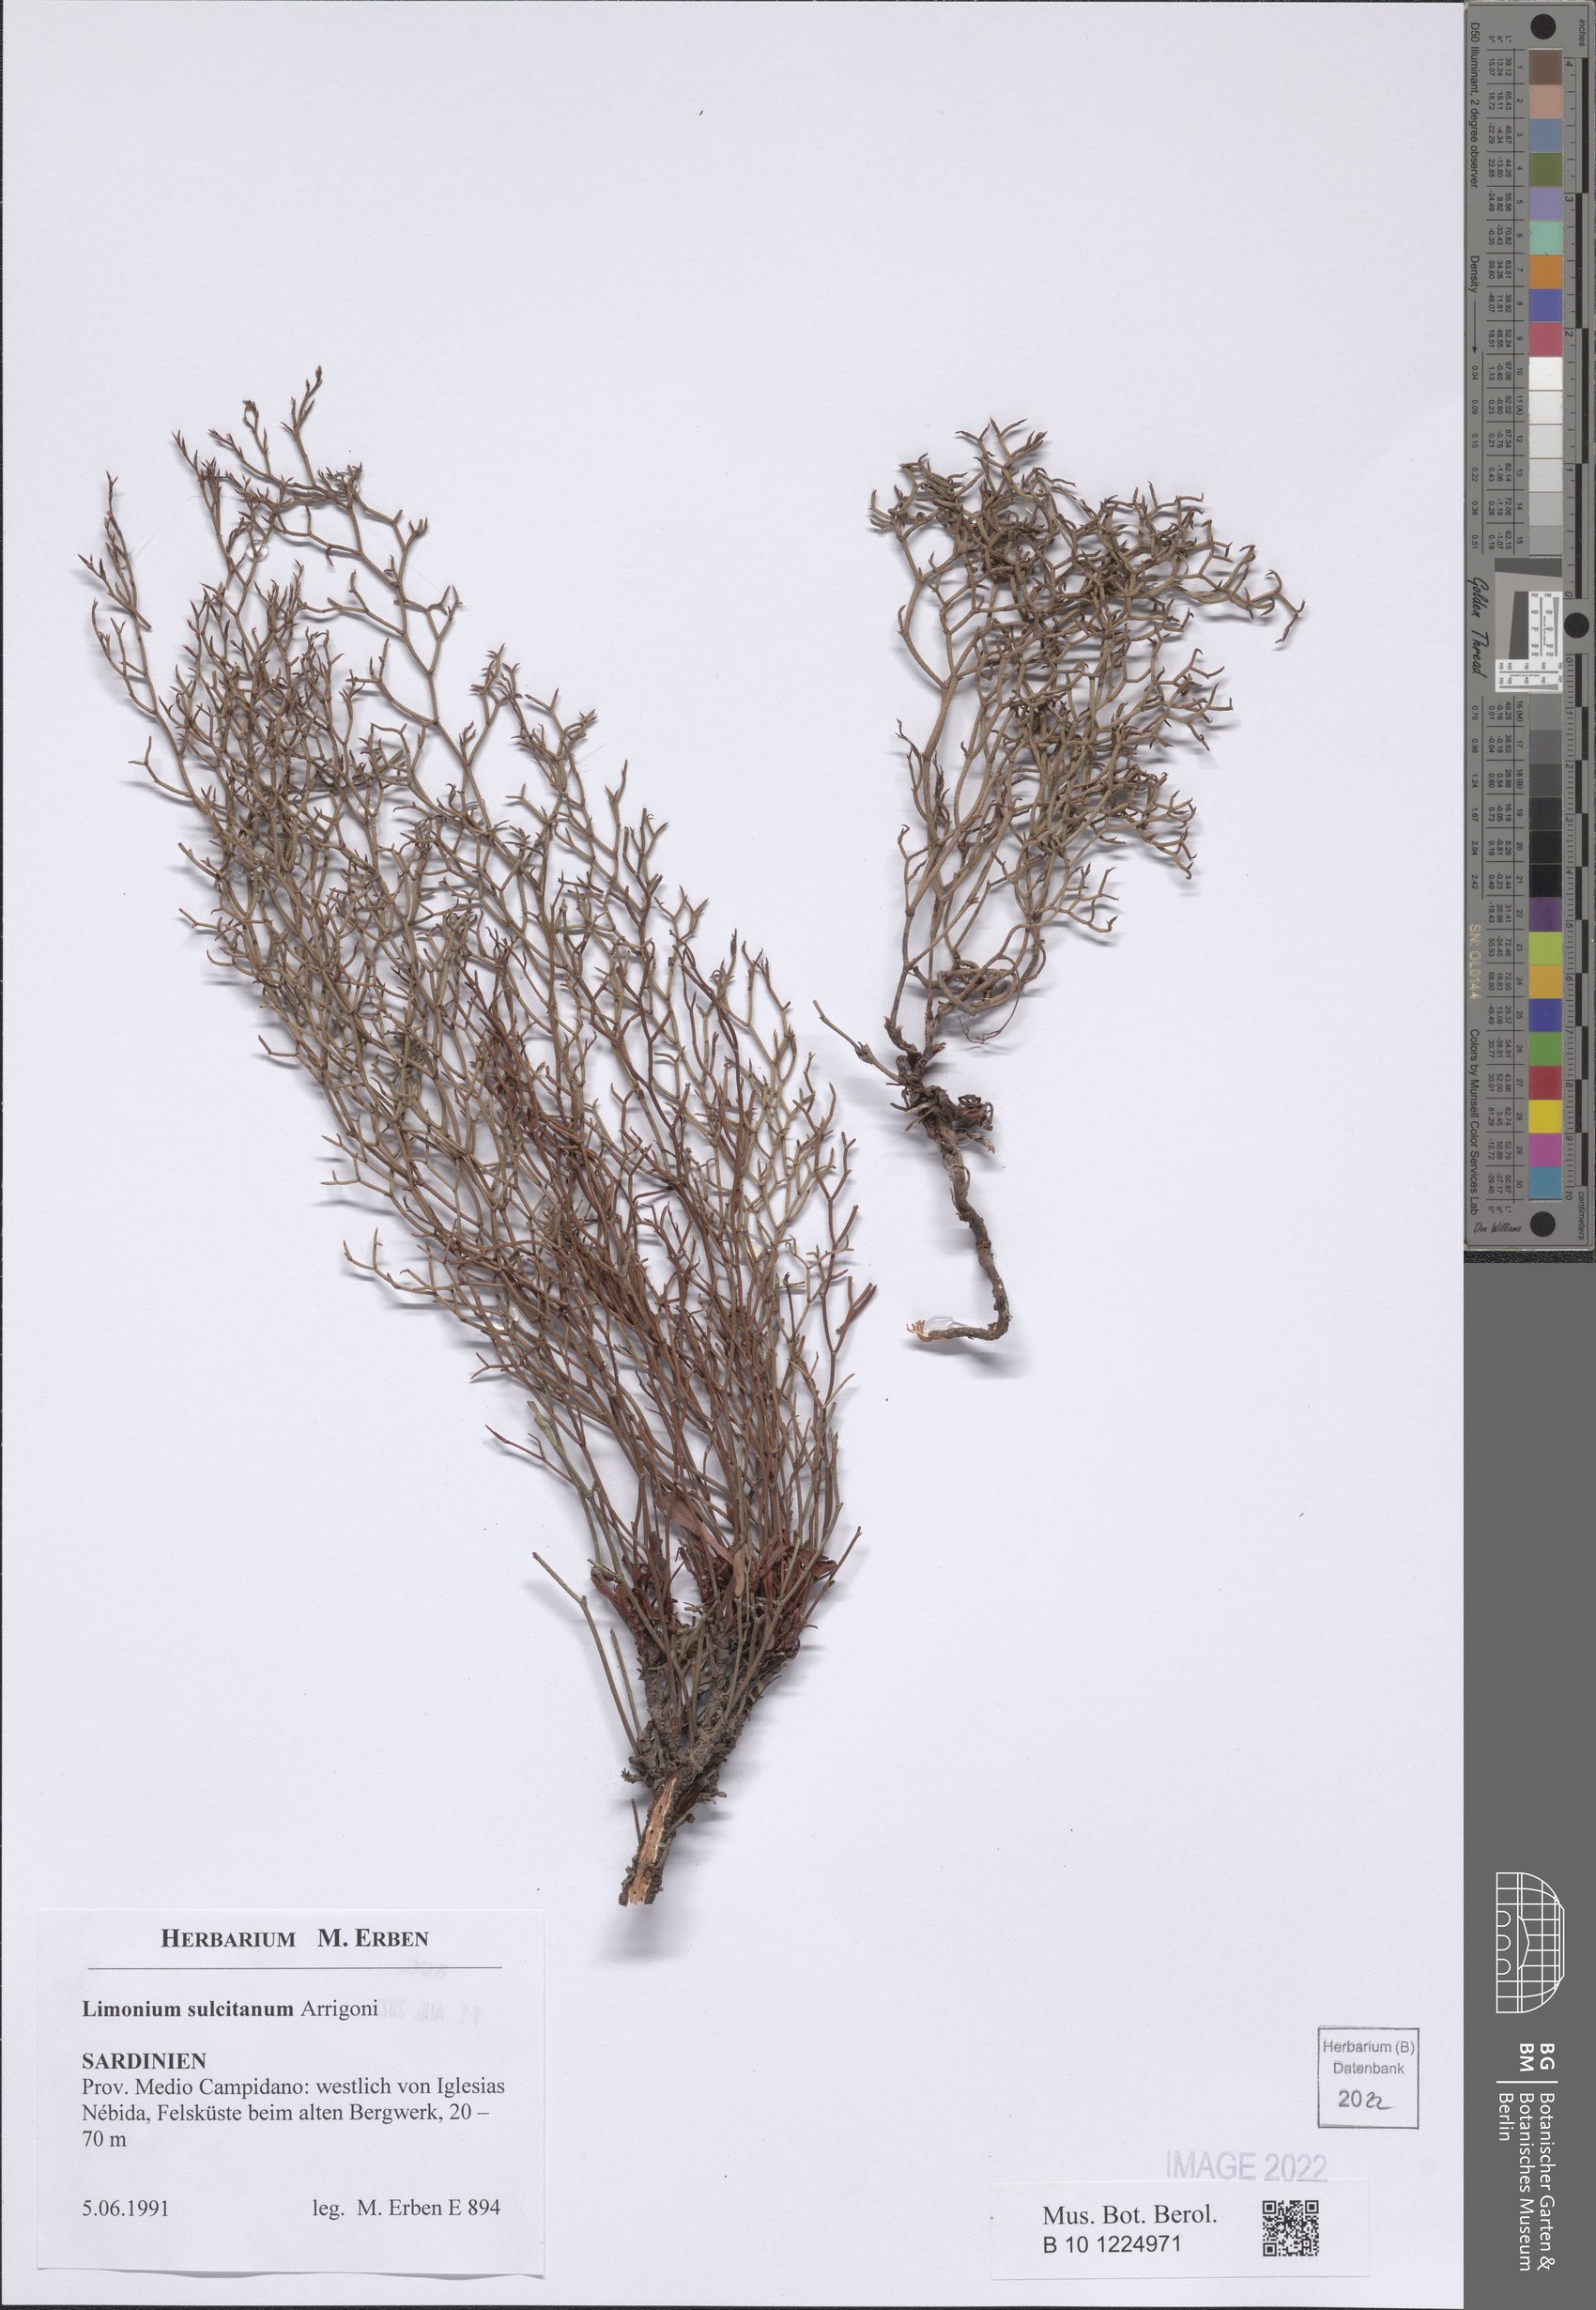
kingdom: Plantae
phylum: Tracheophyta
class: Magnoliopsida
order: Caryophyllales
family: Plumbaginaceae
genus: Limonium
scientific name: Limonium sulcitanum
